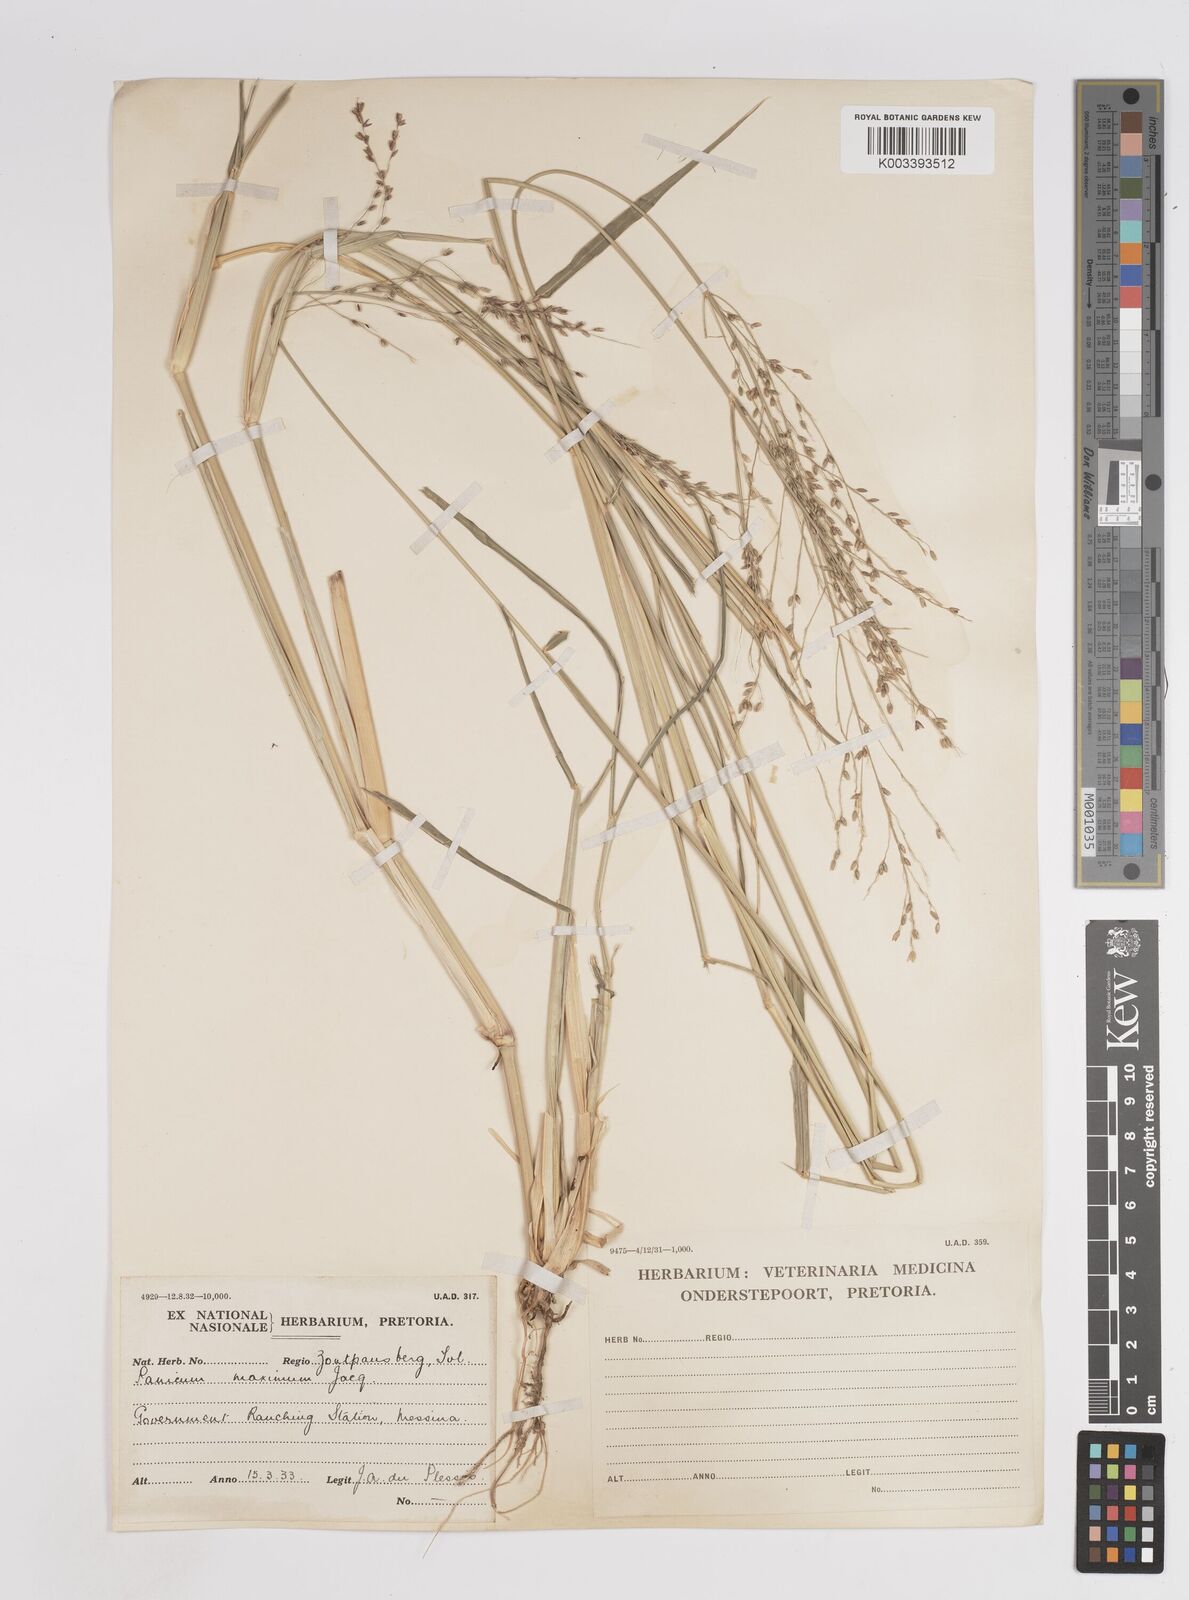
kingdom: Plantae
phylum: Tracheophyta
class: Liliopsida
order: Poales
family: Poaceae
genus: Megathyrsus
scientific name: Megathyrsus maximus
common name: Guineagrass
